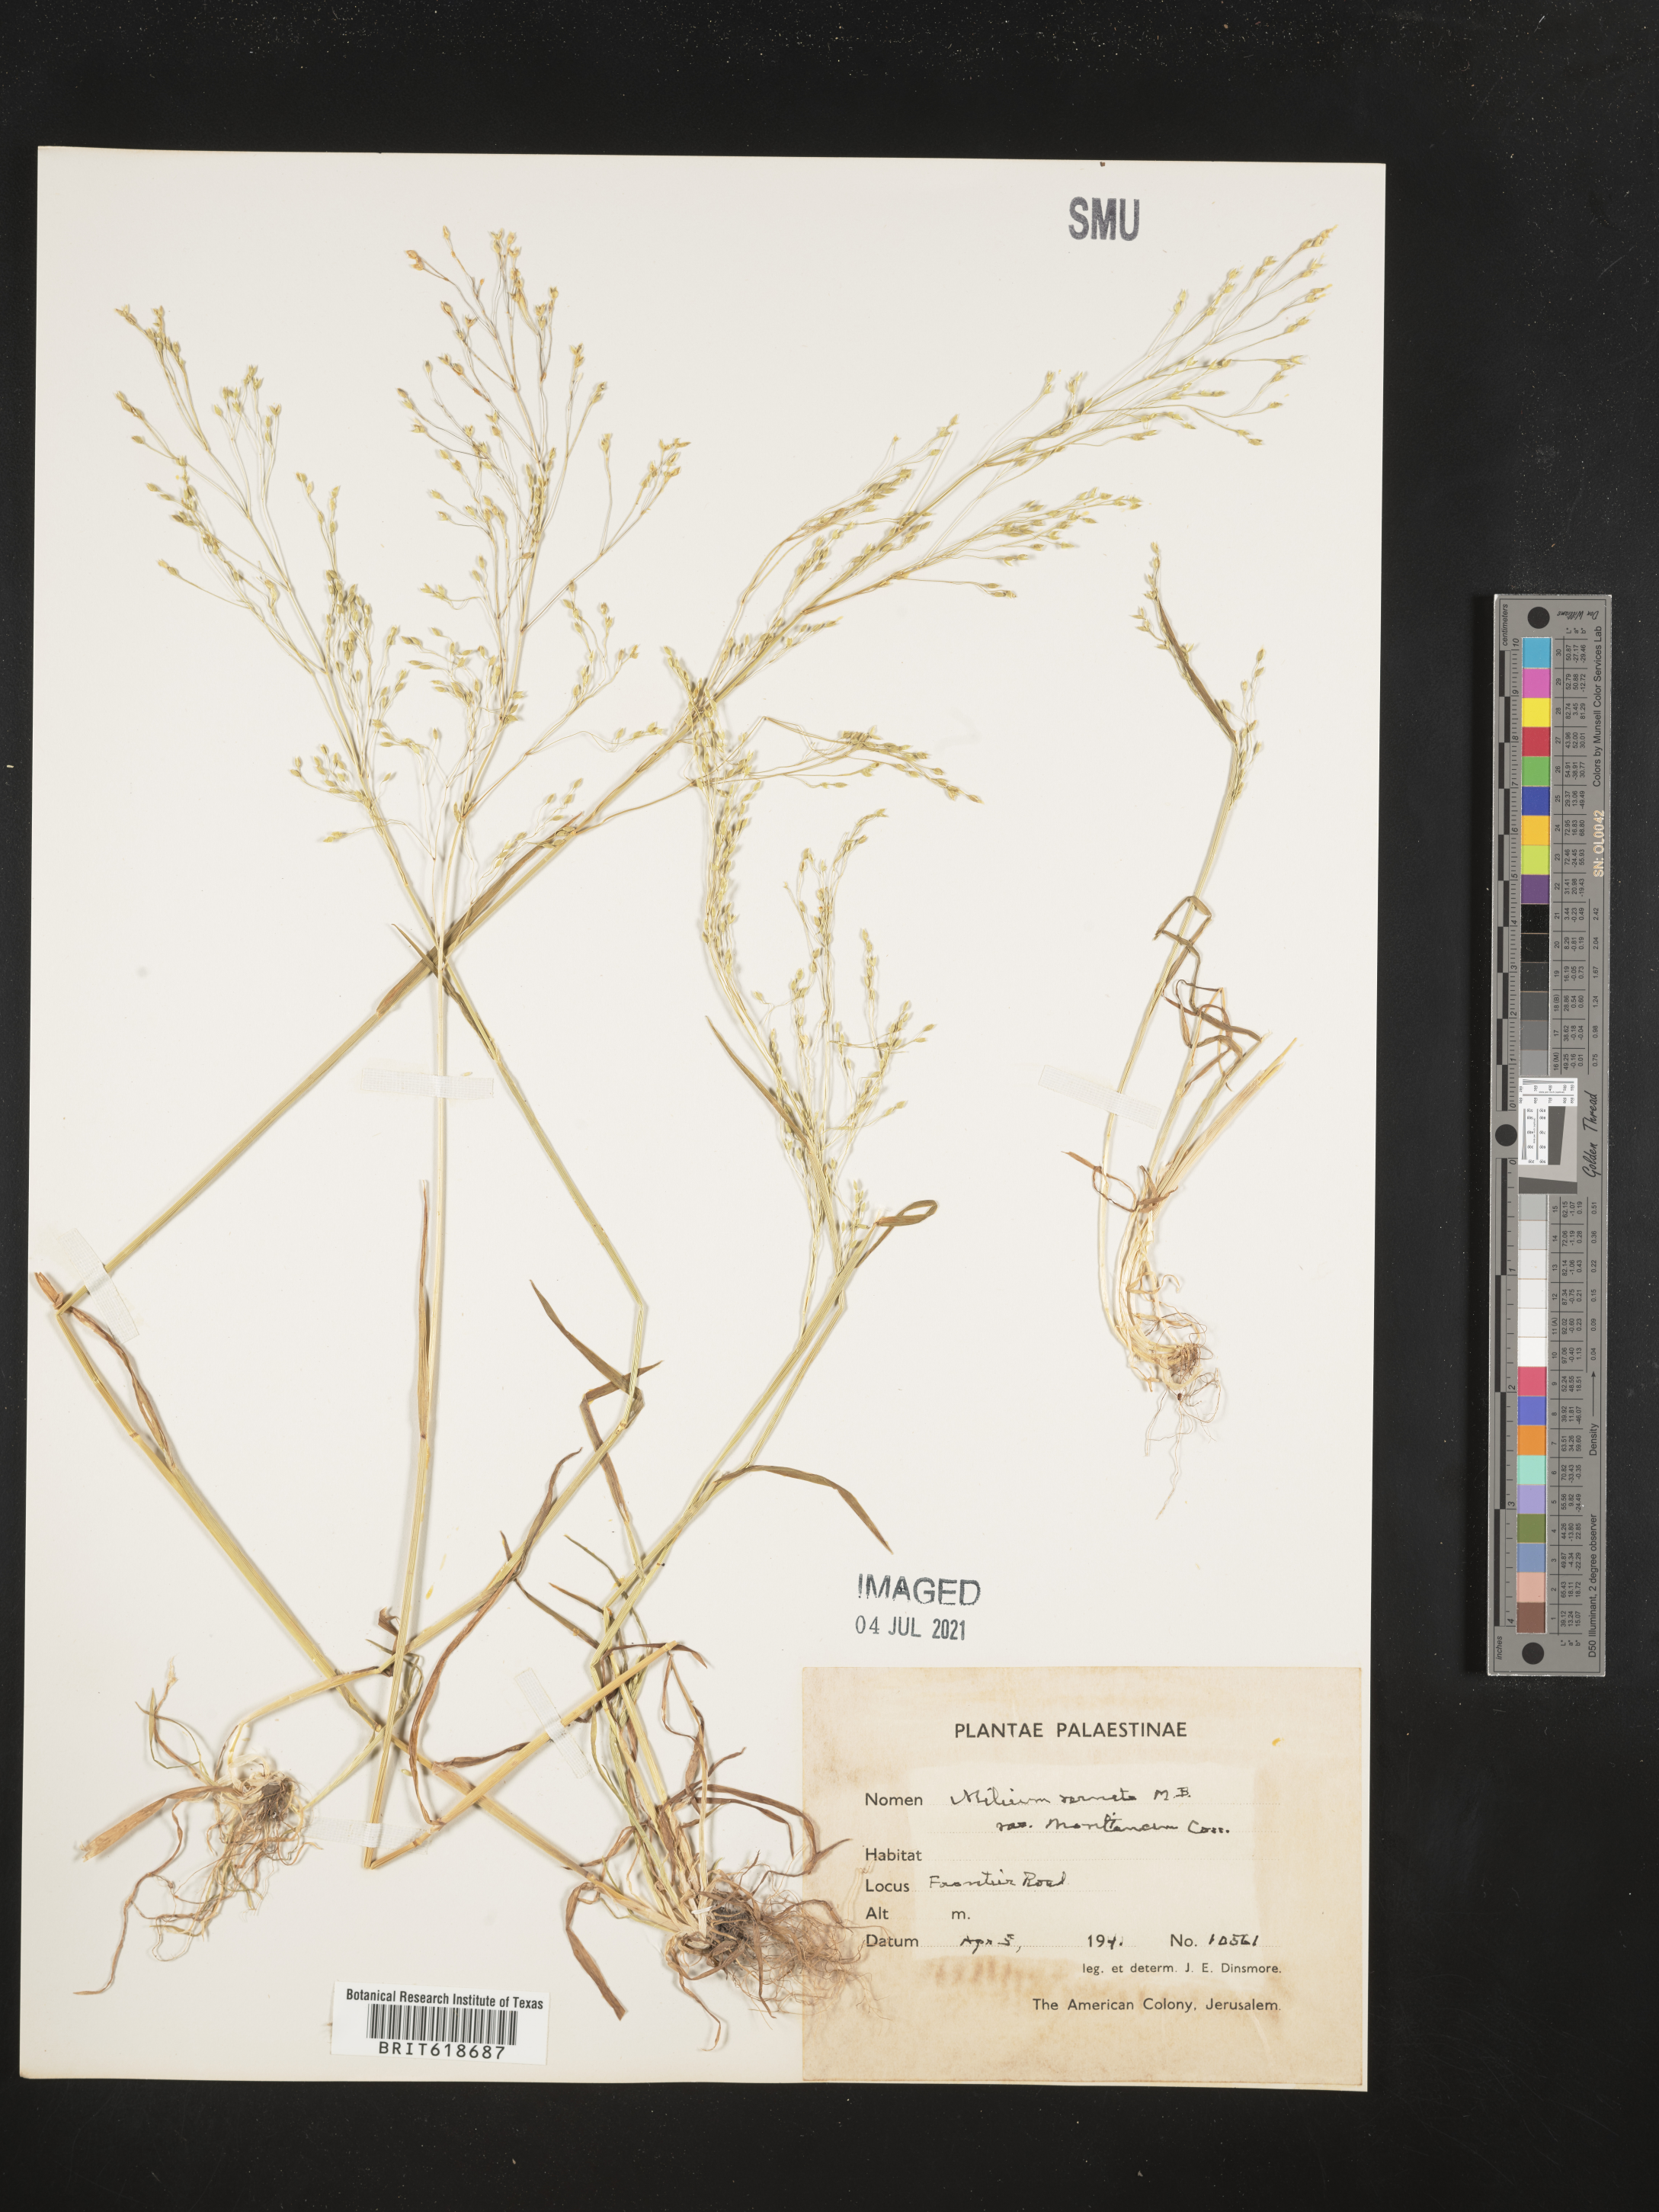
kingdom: Plantae
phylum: Tracheophyta
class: Liliopsida
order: Poales
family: Poaceae
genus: Milium
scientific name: Milium
